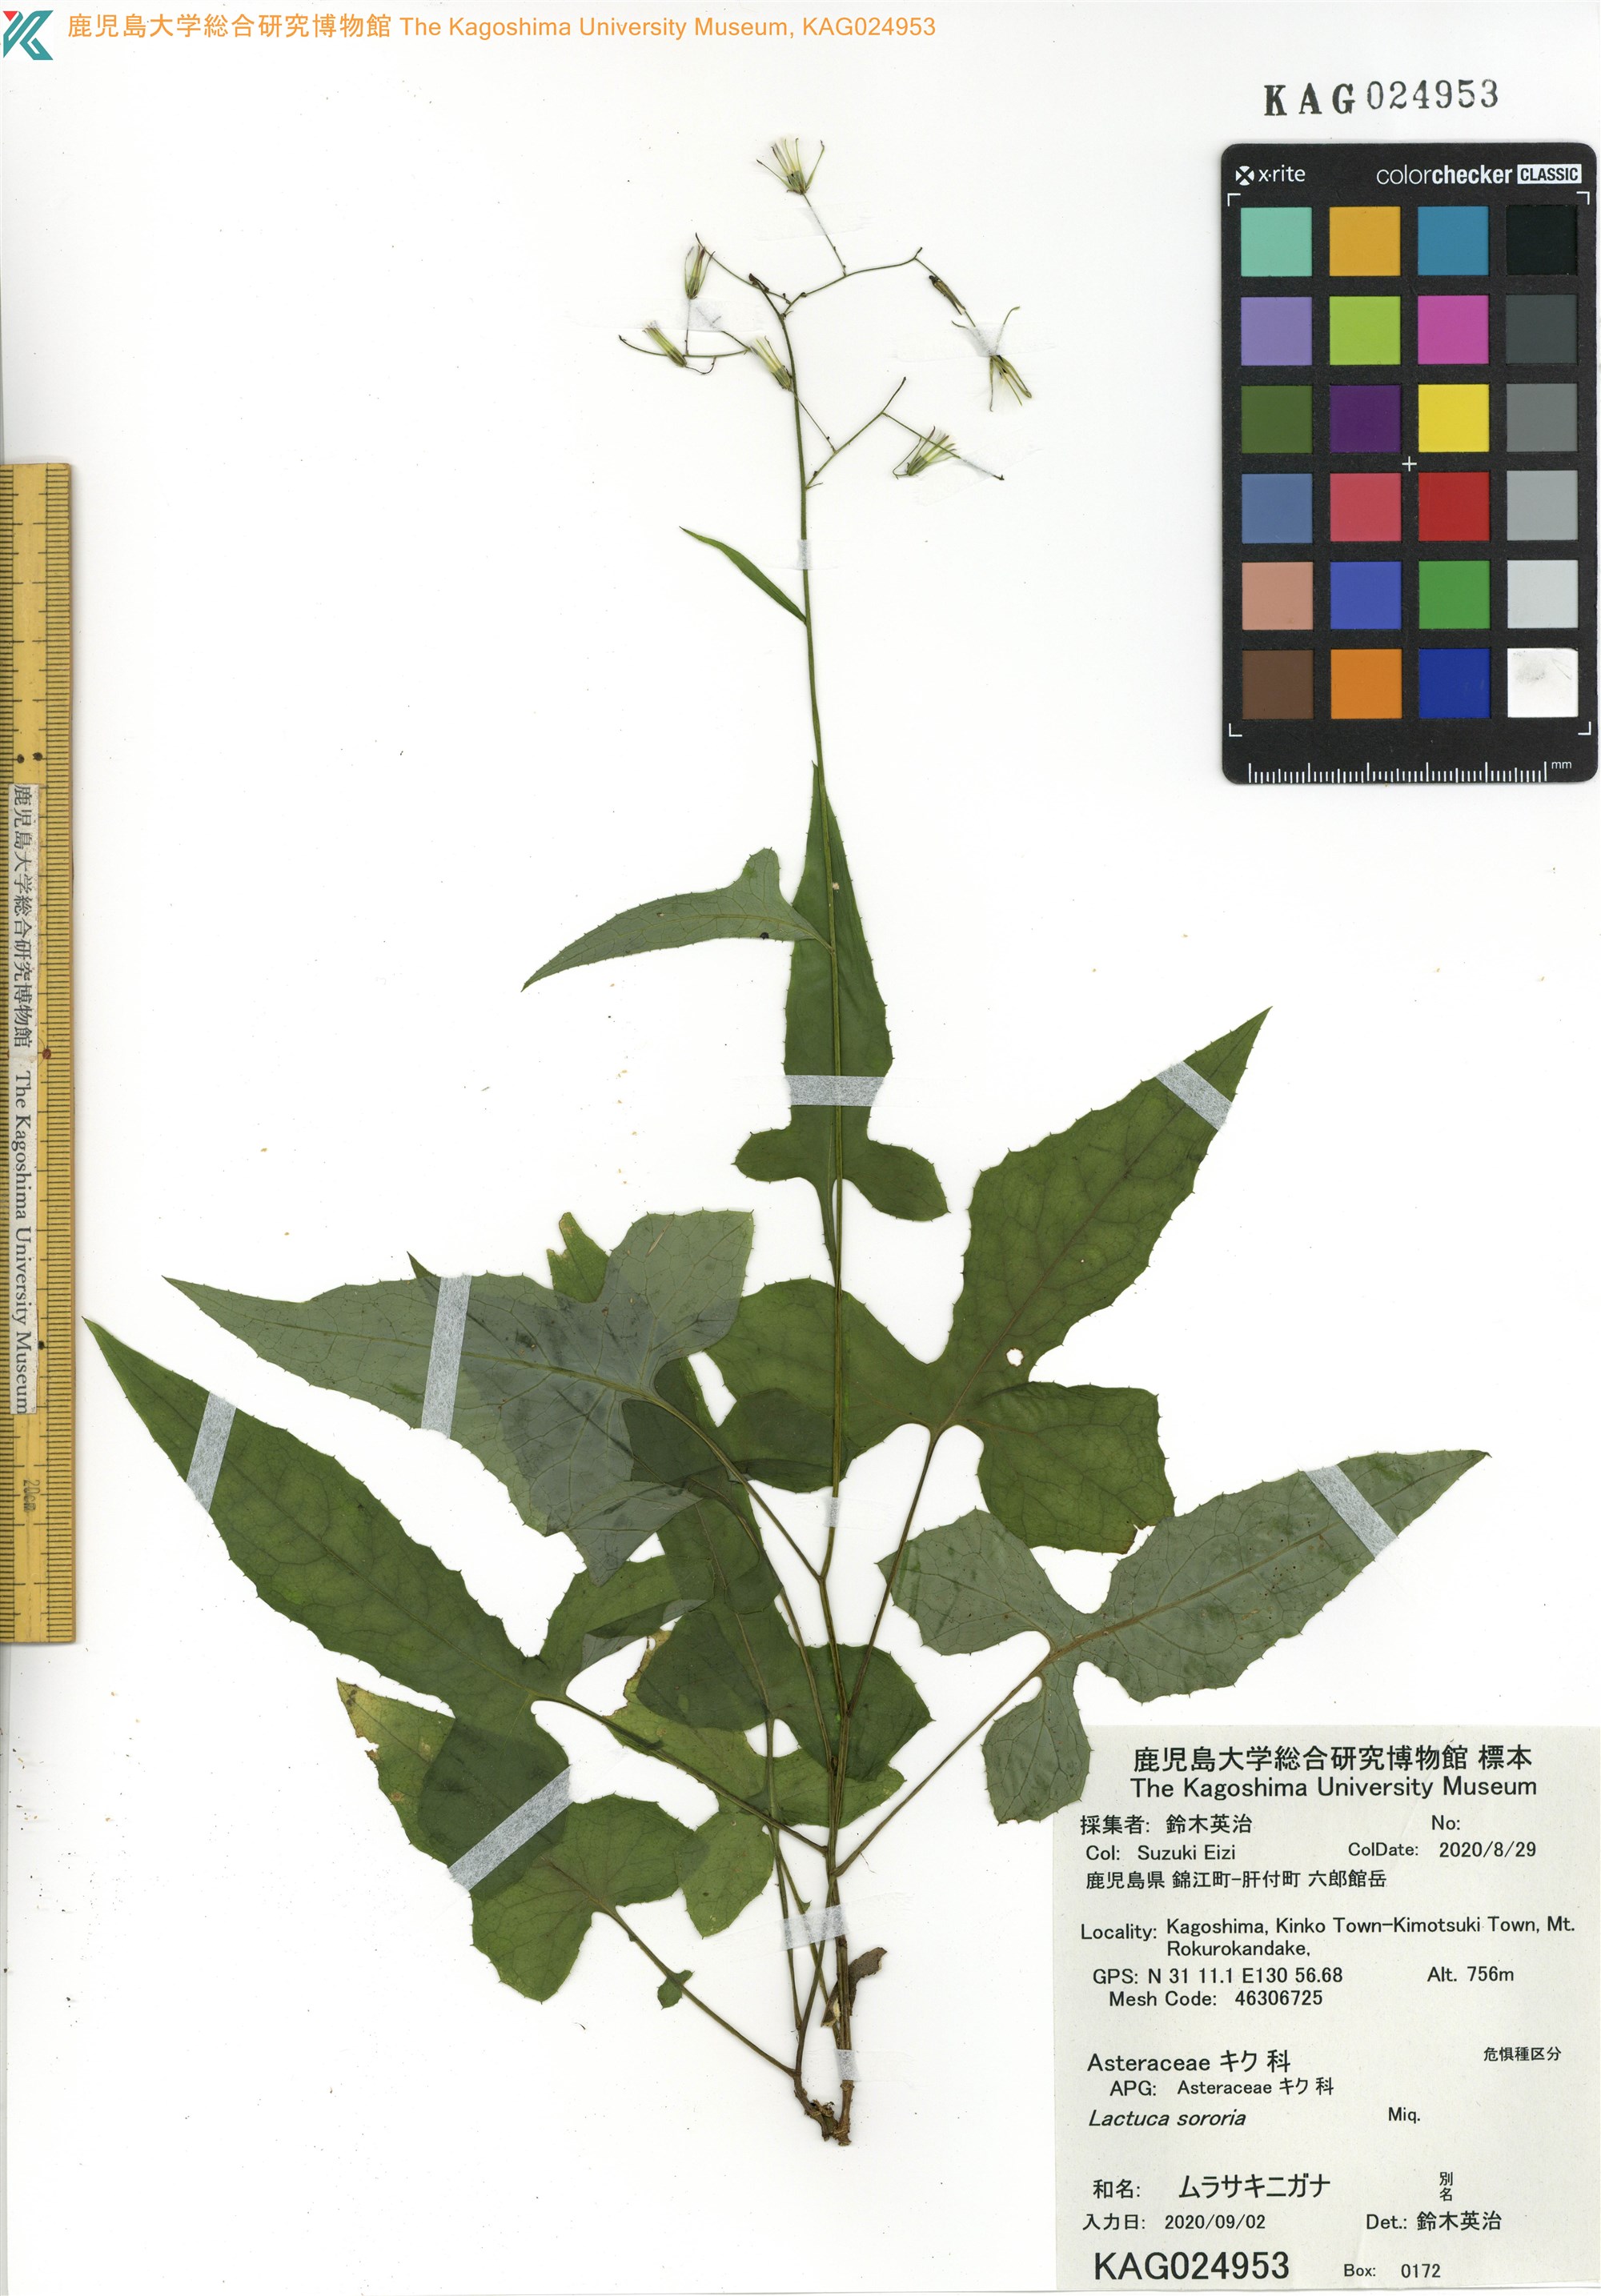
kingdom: Plantae
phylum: Tracheophyta
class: Magnoliopsida
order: Asterales
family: Asteraceae
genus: Paraprenanthes
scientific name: Paraprenanthes sororia
